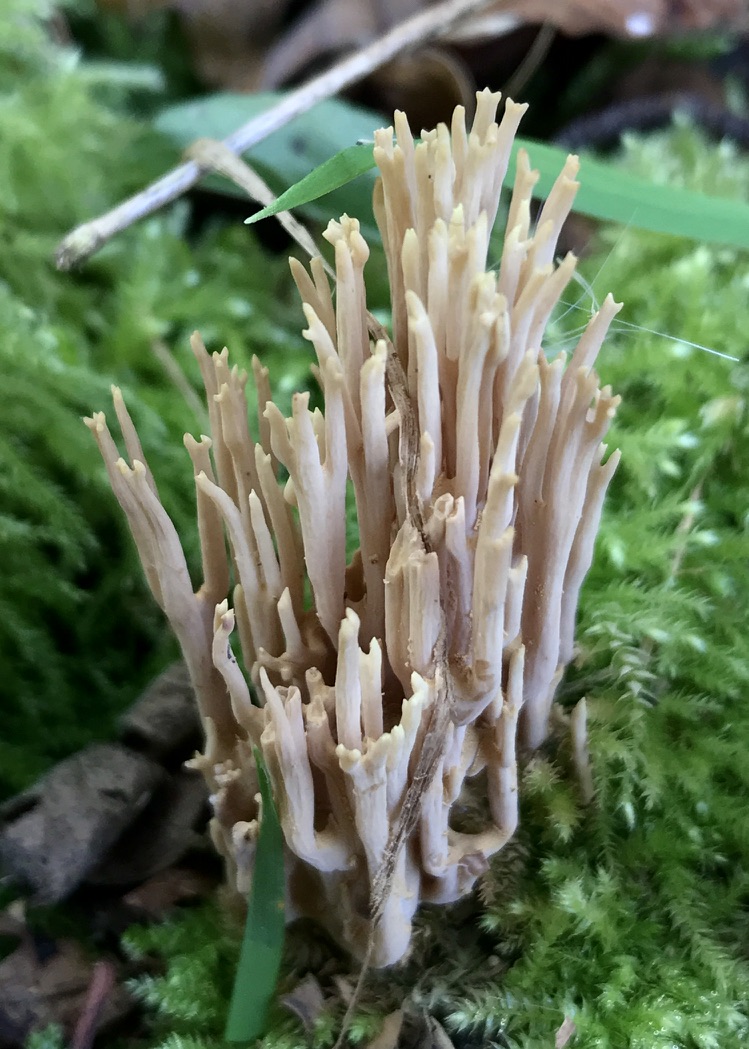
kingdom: Fungi
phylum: Basidiomycota
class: Agaricomycetes
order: Gomphales
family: Gomphaceae
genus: Ramaria
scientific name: Ramaria stricta
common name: rank koralsvamp
